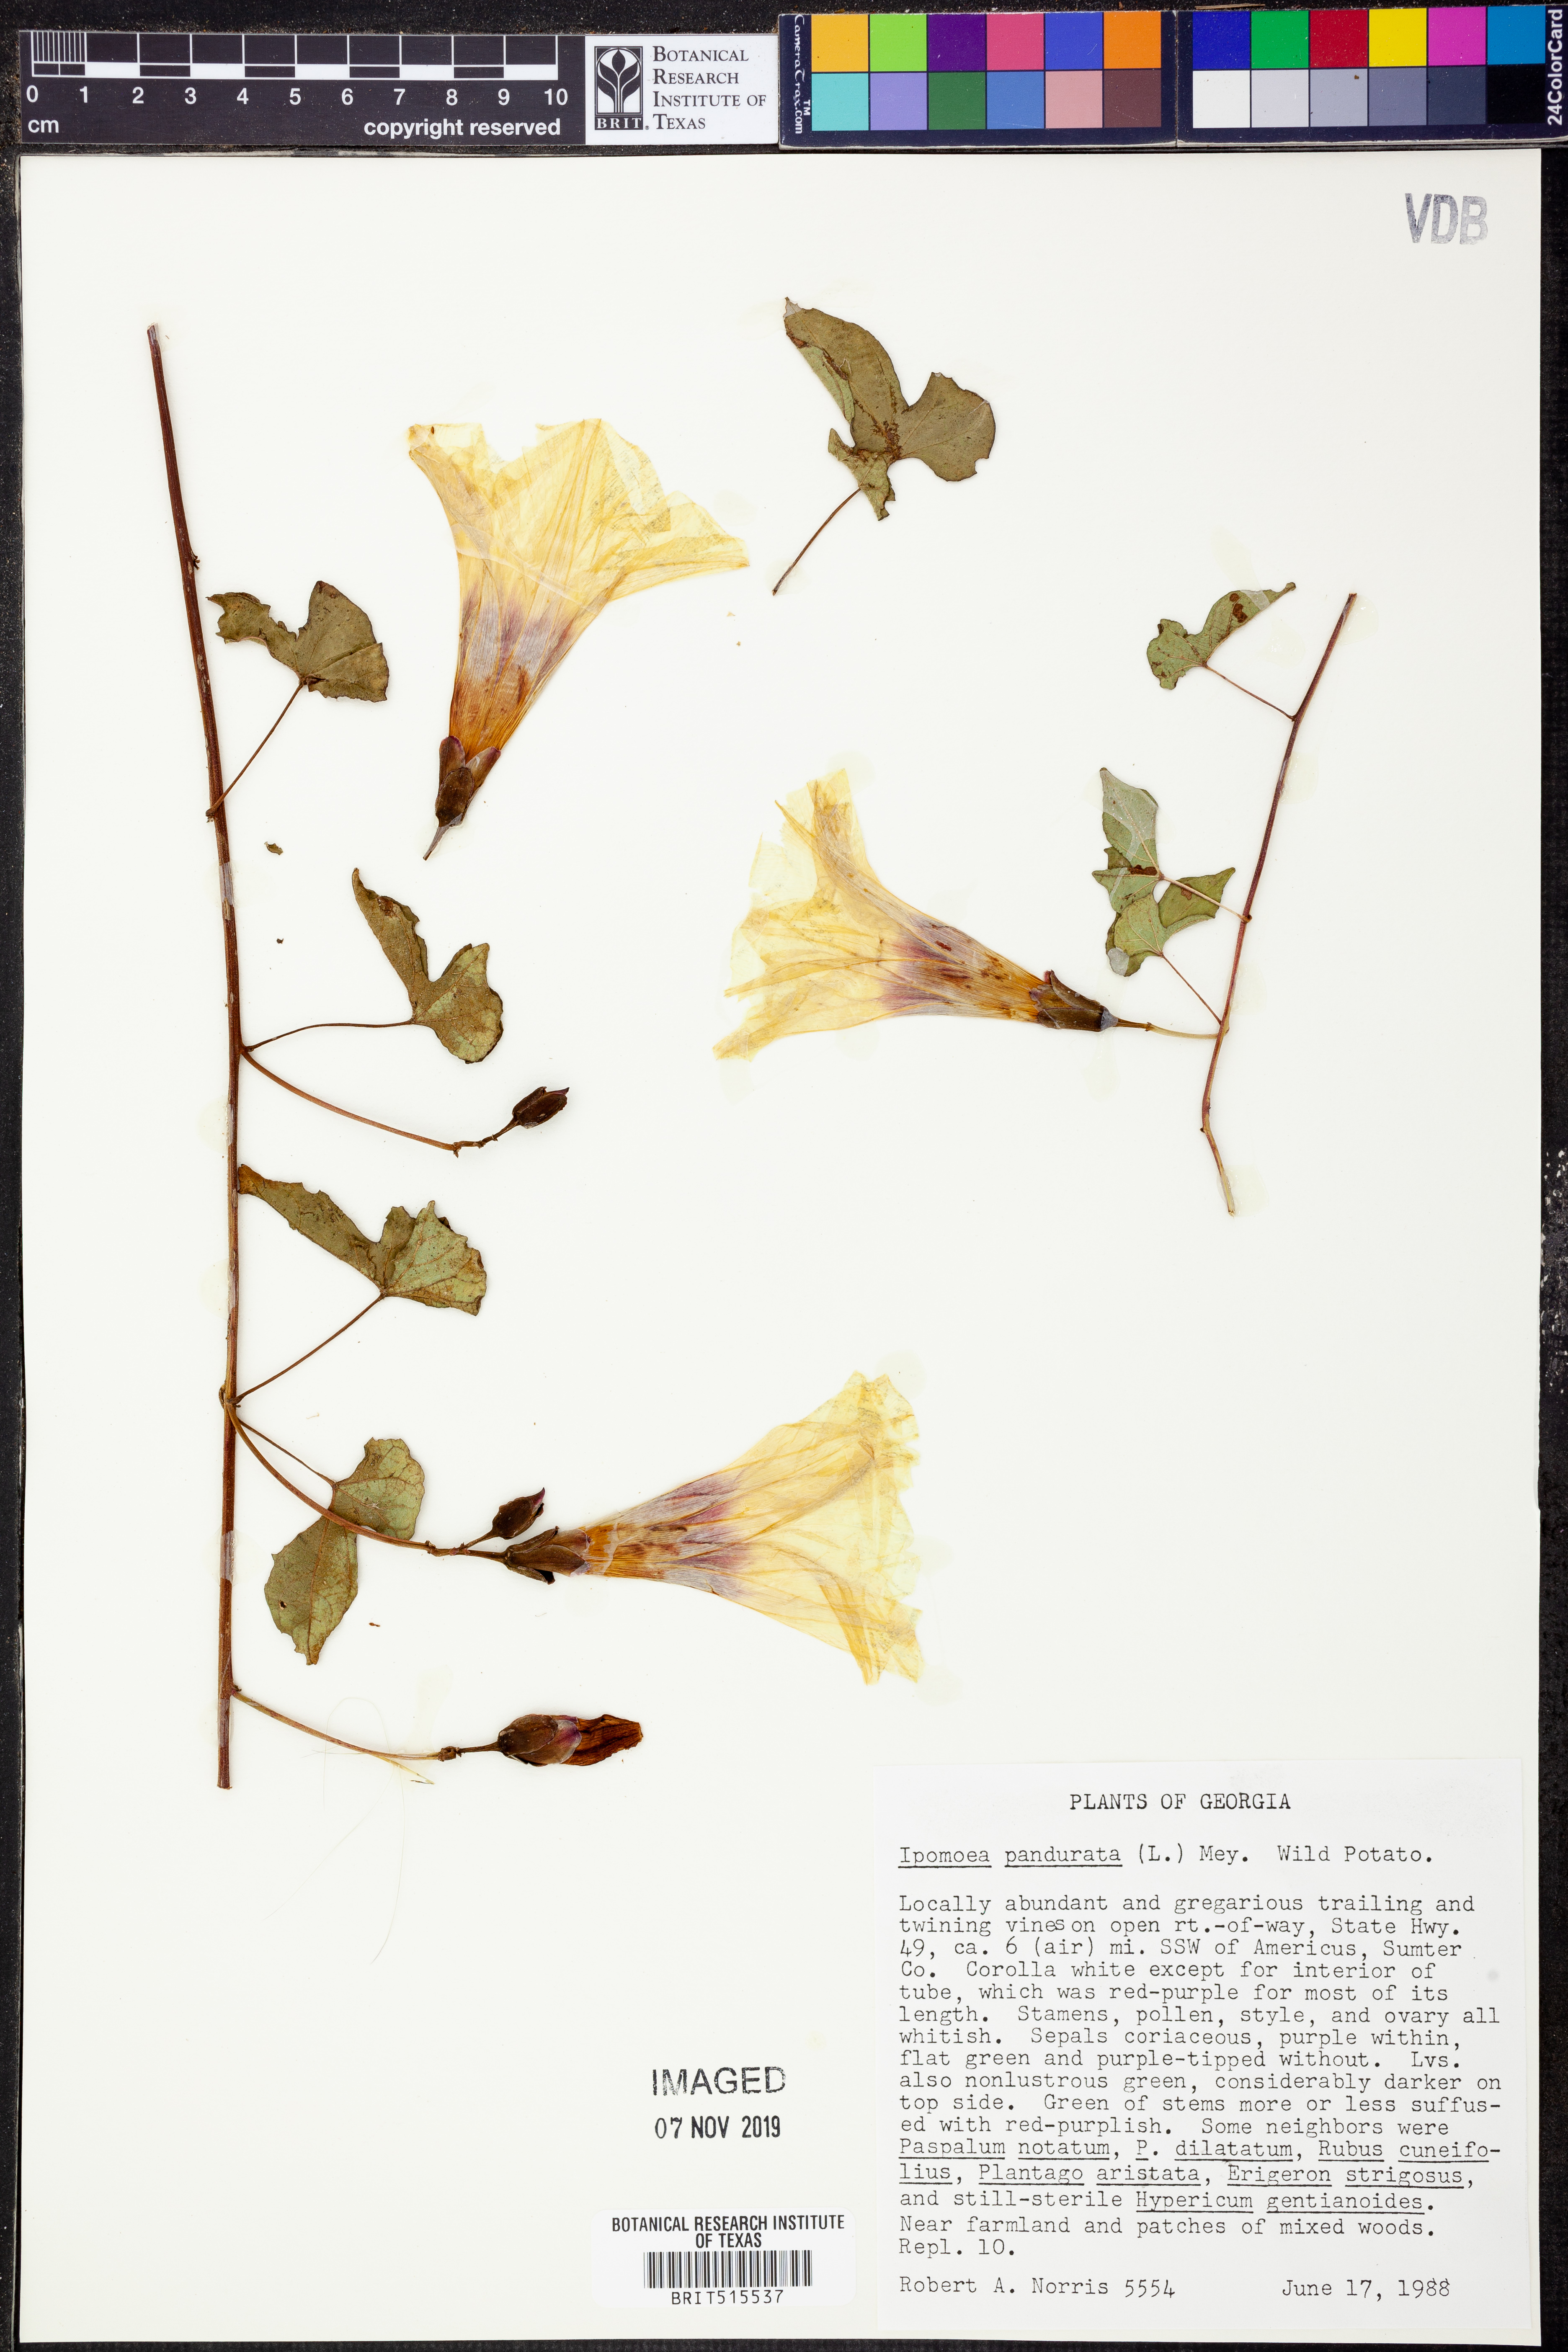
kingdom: Plantae
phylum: Tracheophyta
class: Magnoliopsida
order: Solanales
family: Convolvulaceae
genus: Ipomoea
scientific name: Ipomoea pandurata
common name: Man-of-the-earth
